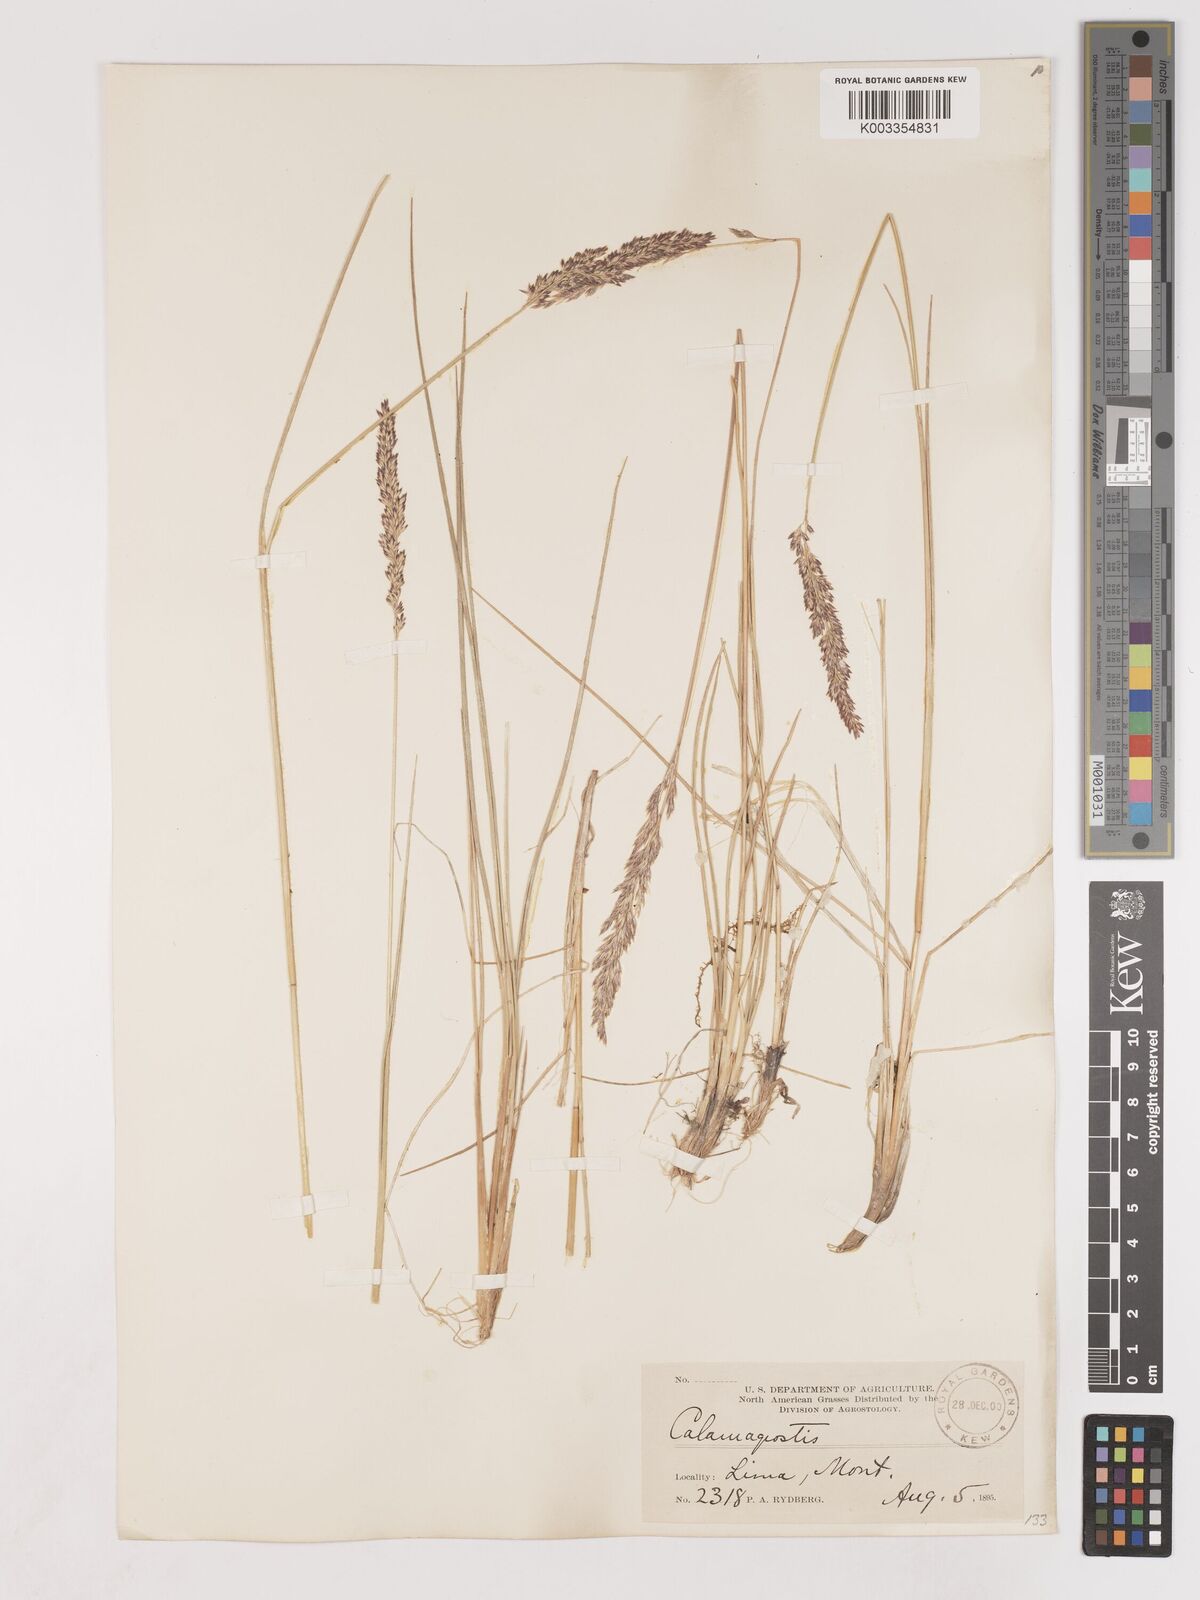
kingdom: Plantae
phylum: Tracheophyta
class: Liliopsida
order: Poales
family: Poaceae
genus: Calamagrostis
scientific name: Calamagrostis
